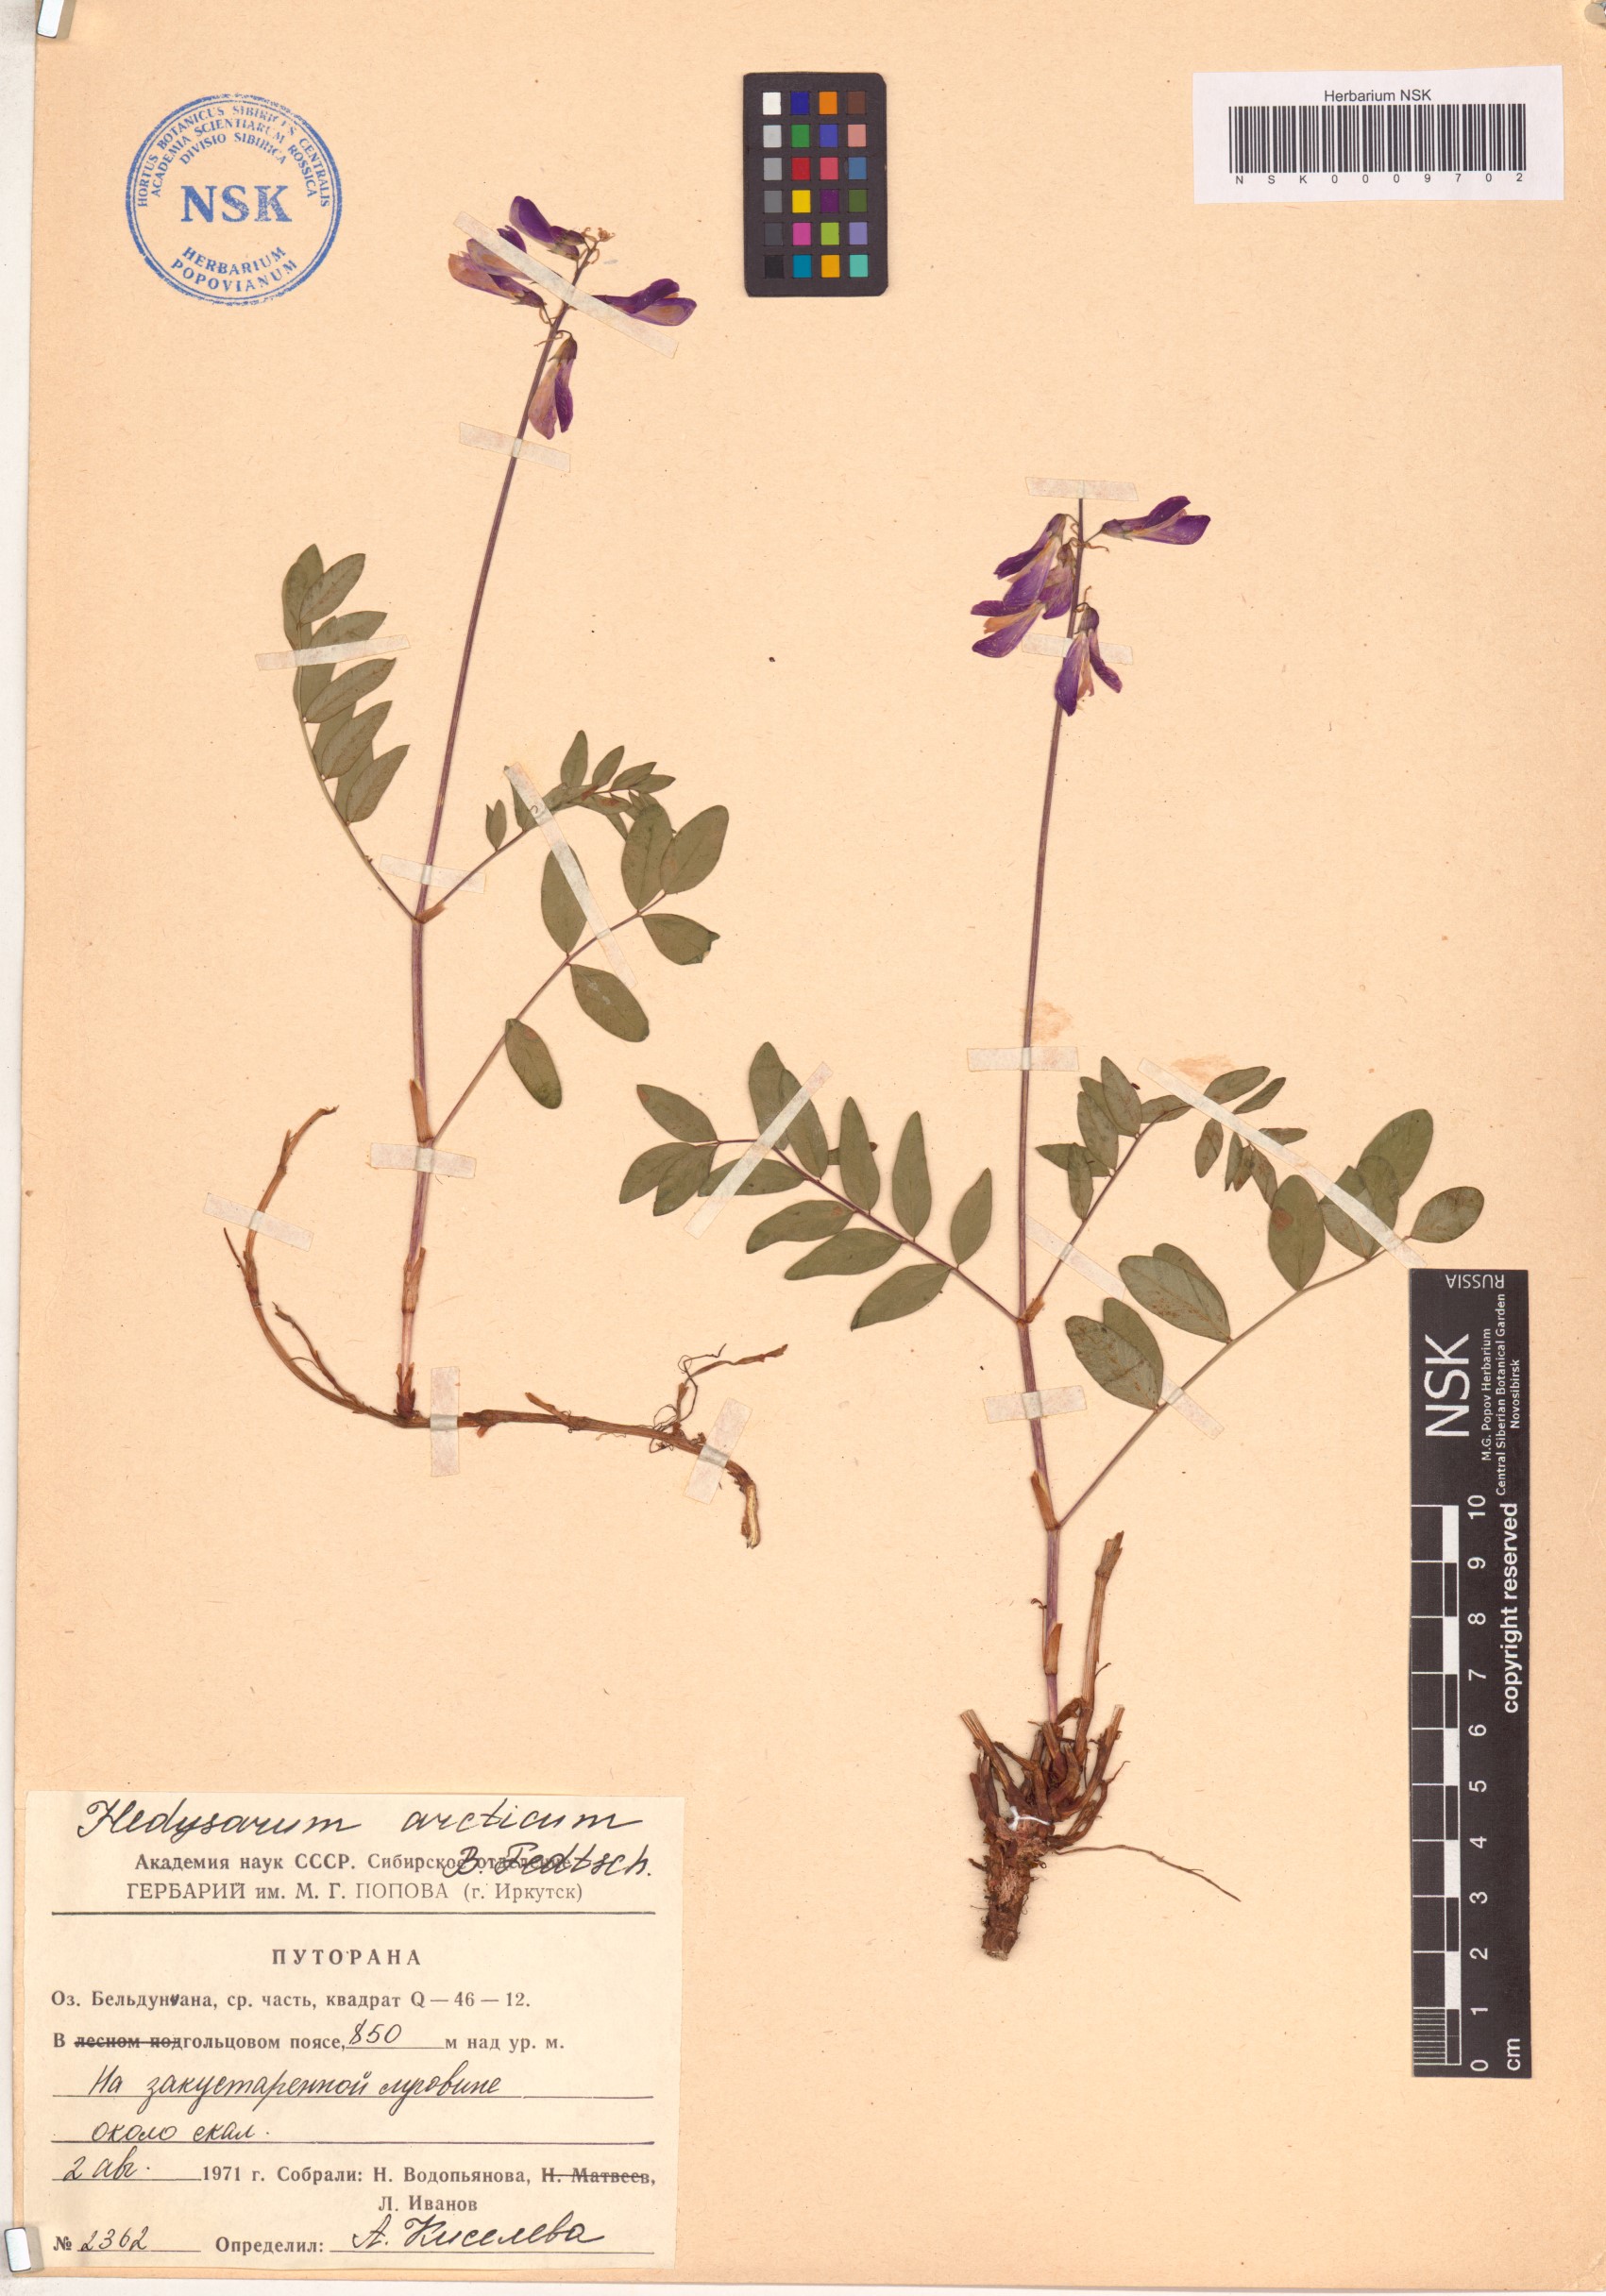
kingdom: Plantae
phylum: Tracheophyta
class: Magnoliopsida
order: Fabales
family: Fabaceae
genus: Hedysarum
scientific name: Hedysarum hedysaroides
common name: Alpine french-honeysuckle
